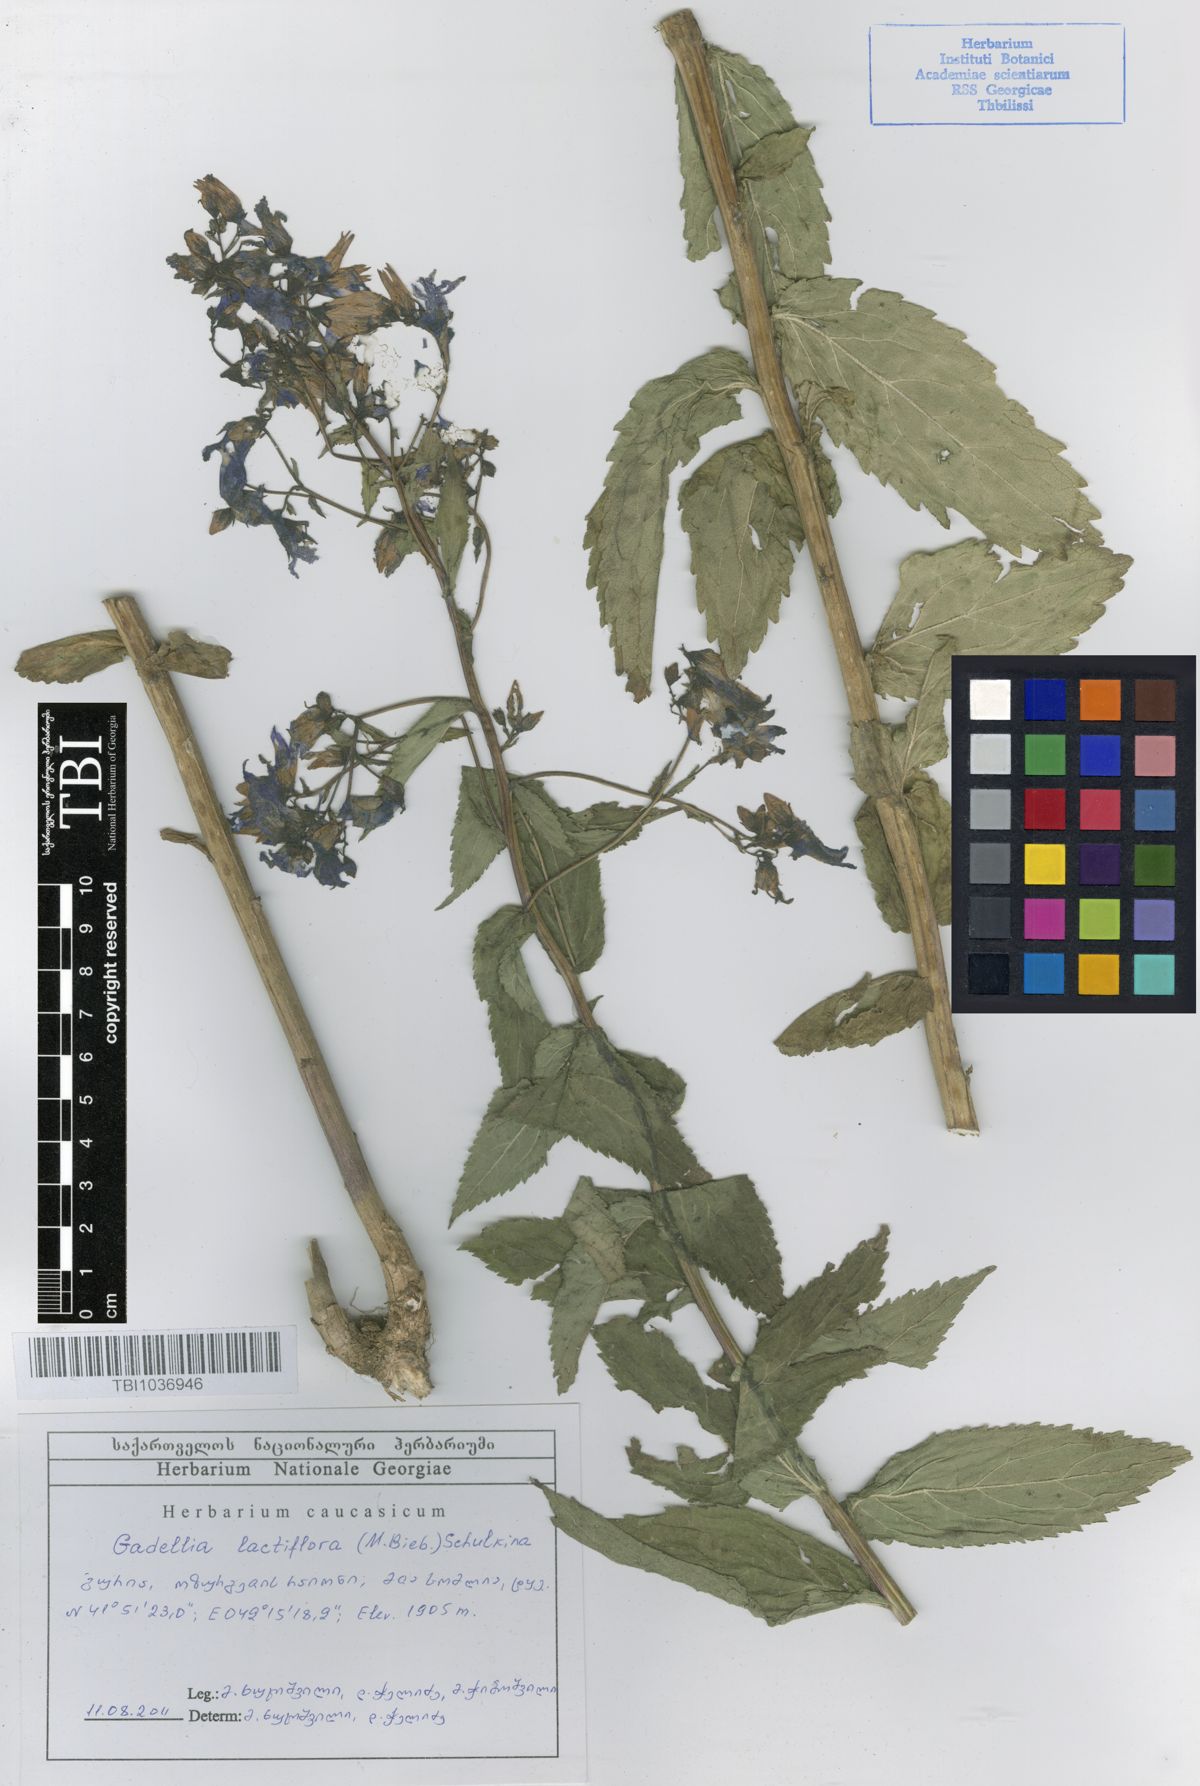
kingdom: Plantae
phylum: Tracheophyta
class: Magnoliopsida
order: Asterales
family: Campanulaceae
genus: Campanula
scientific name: Campanula lactiflora
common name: Milky bellflower
